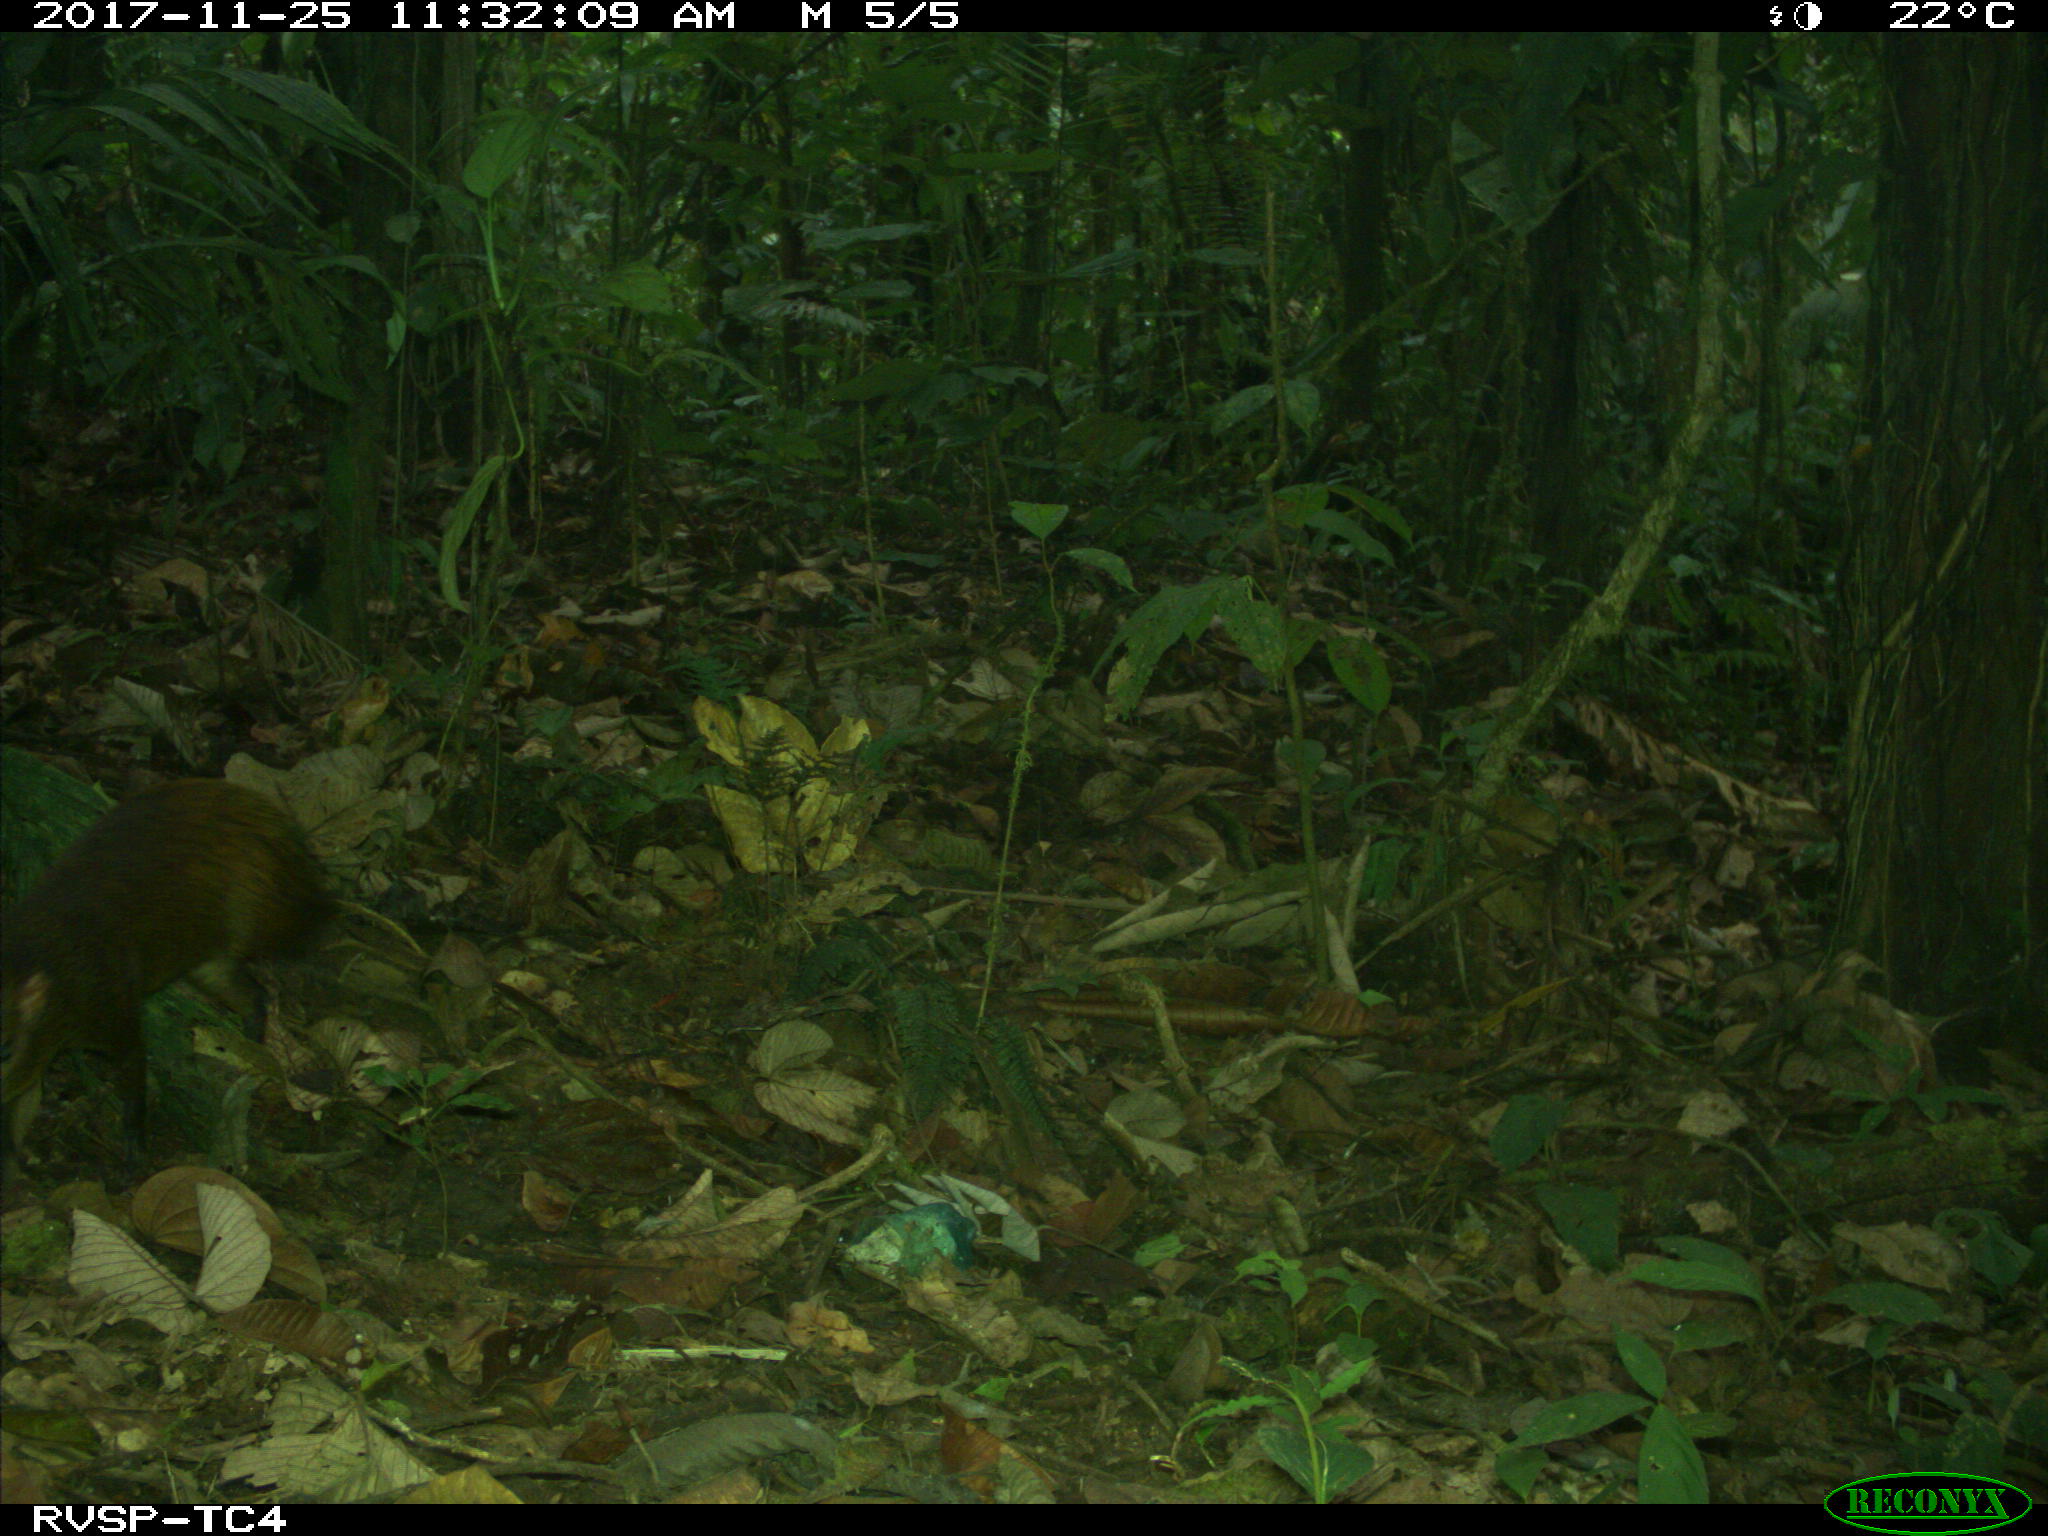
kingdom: Animalia
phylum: Chordata
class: Mammalia
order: Rodentia
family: Dasyproctidae
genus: Dasyprocta
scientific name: Dasyprocta punctata
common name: Central american agouti
